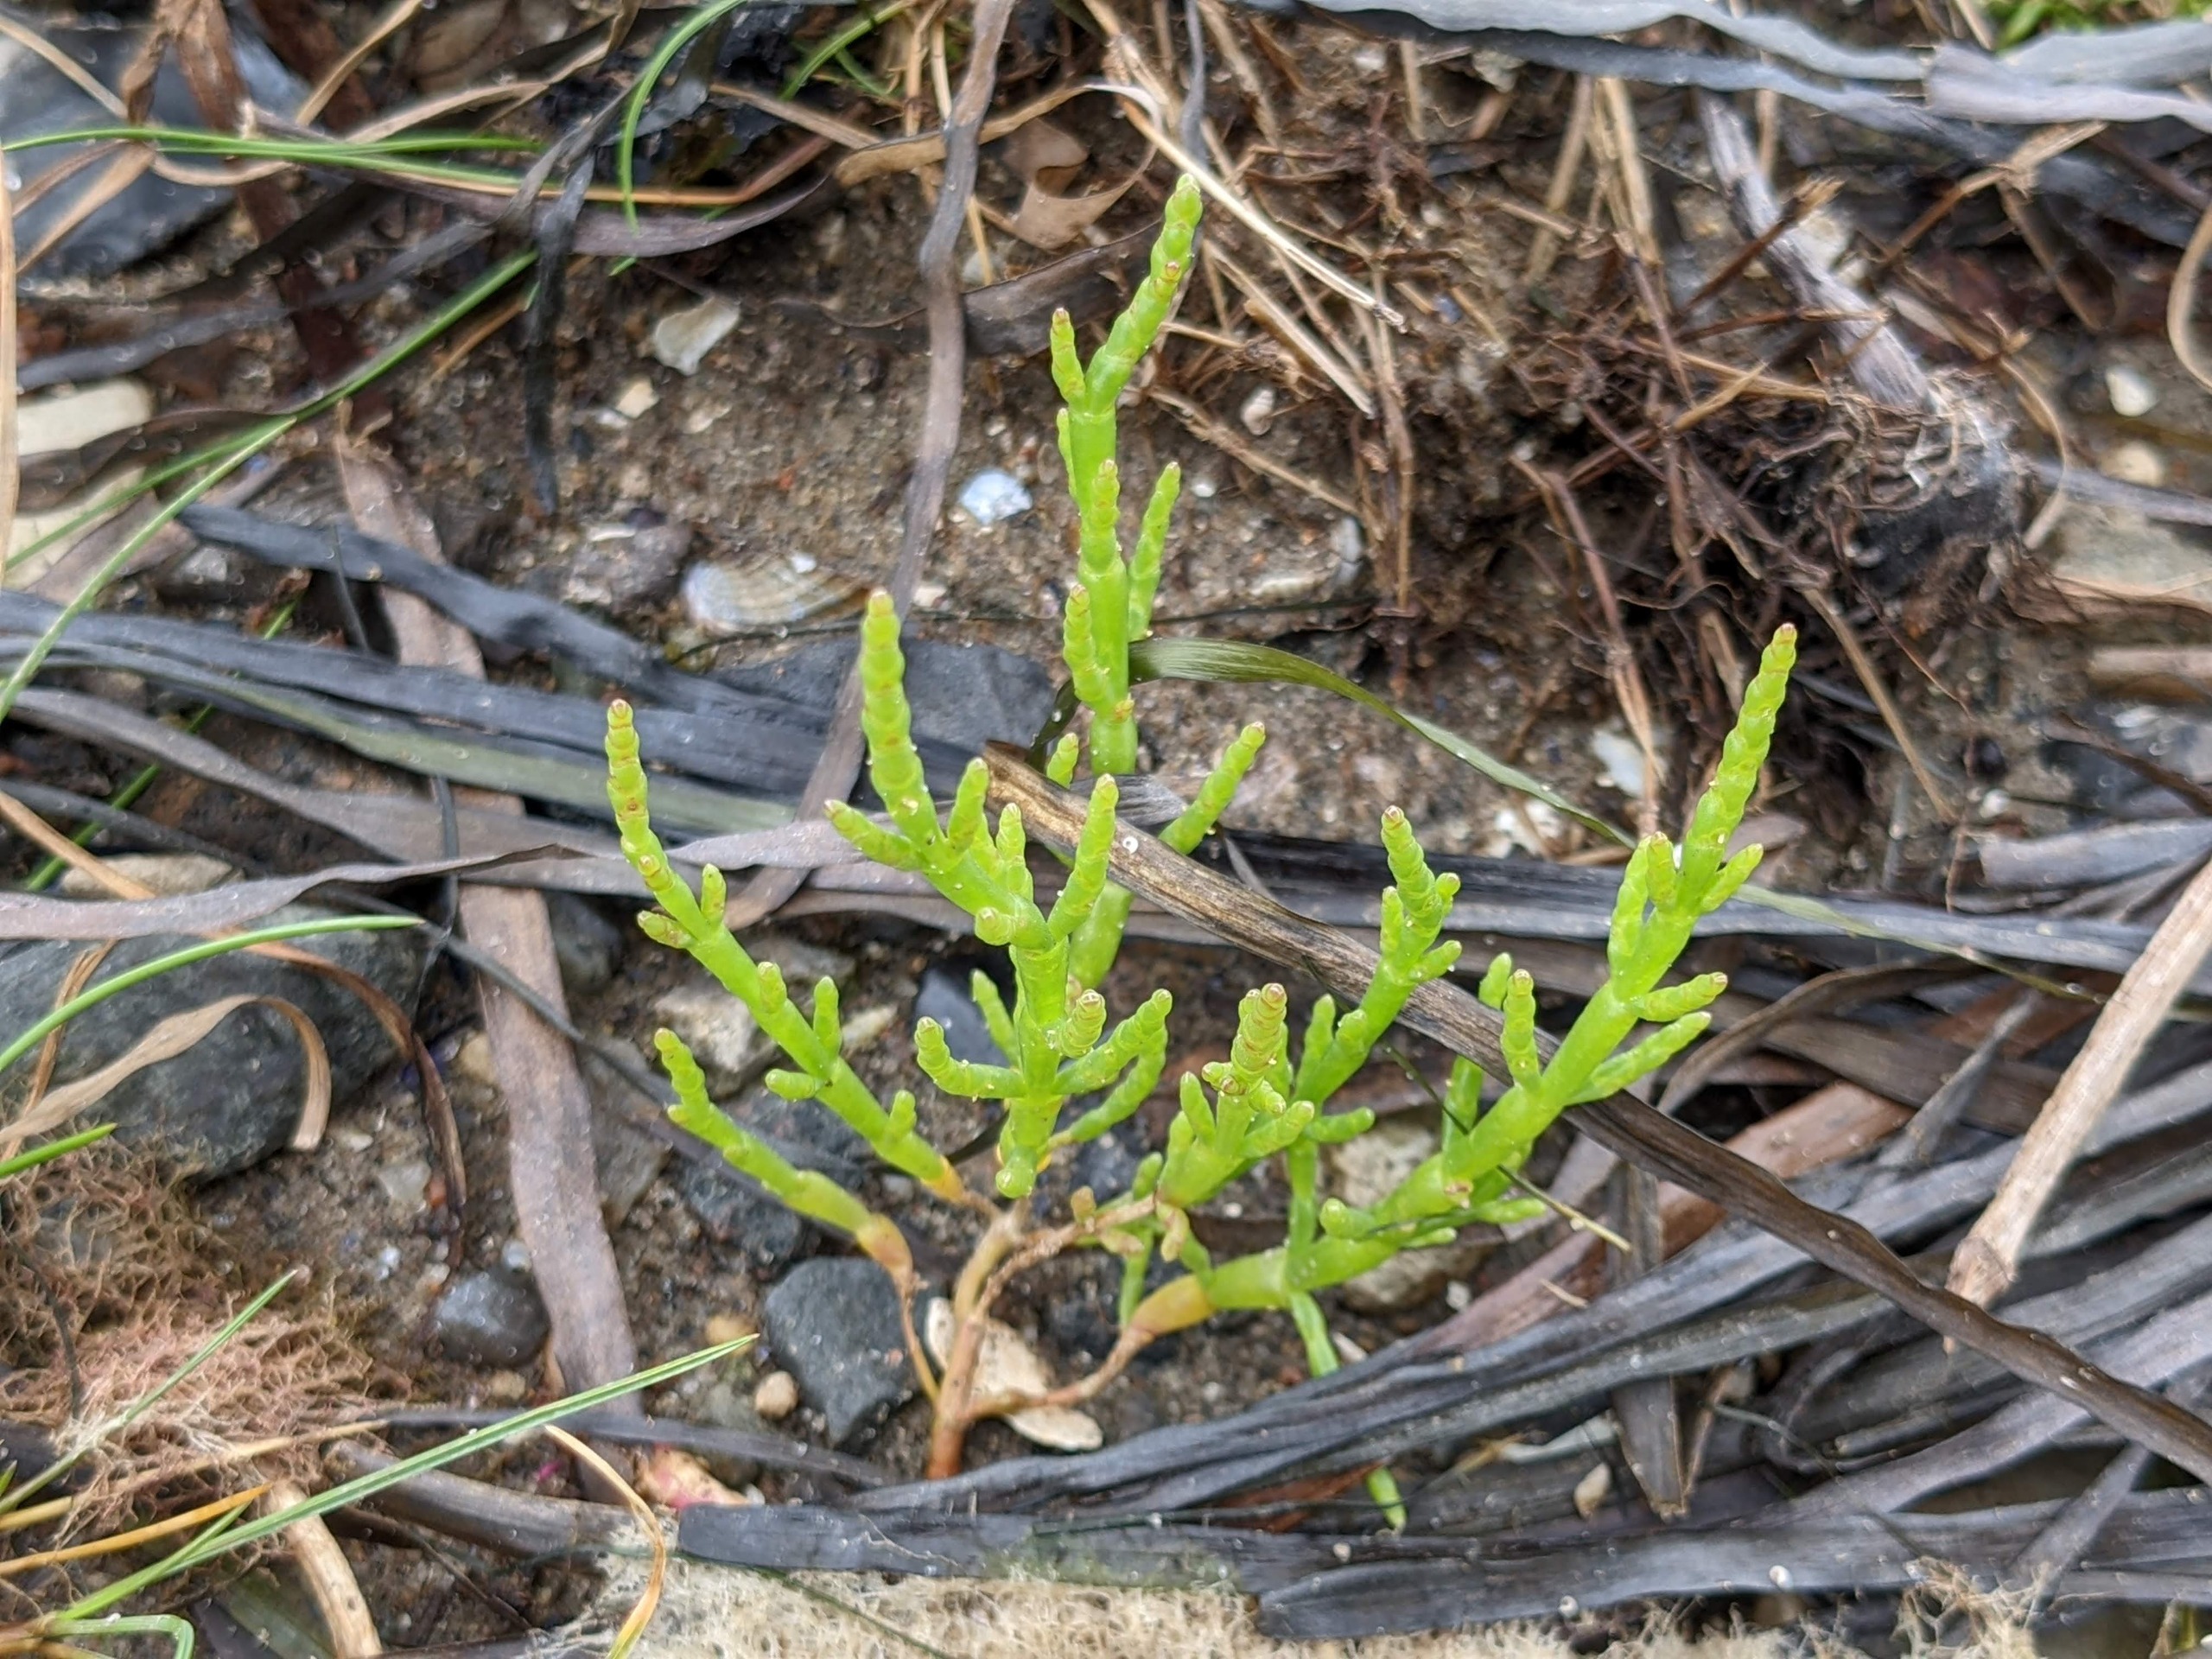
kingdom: Plantae
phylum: Tracheophyta
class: Magnoliopsida
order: Caryophyllales
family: Amaranthaceae
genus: Salicornia
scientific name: Salicornia europaea
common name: Almindelig salturt
